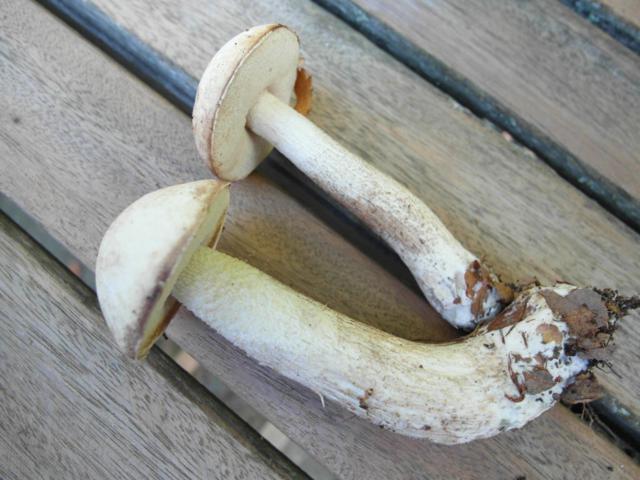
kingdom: Fungi
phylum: Basidiomycota
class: Agaricomycetes
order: Boletales
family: Boletaceae
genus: Leccinum
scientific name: Leccinum scabrum
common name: hvid skælrørhat
